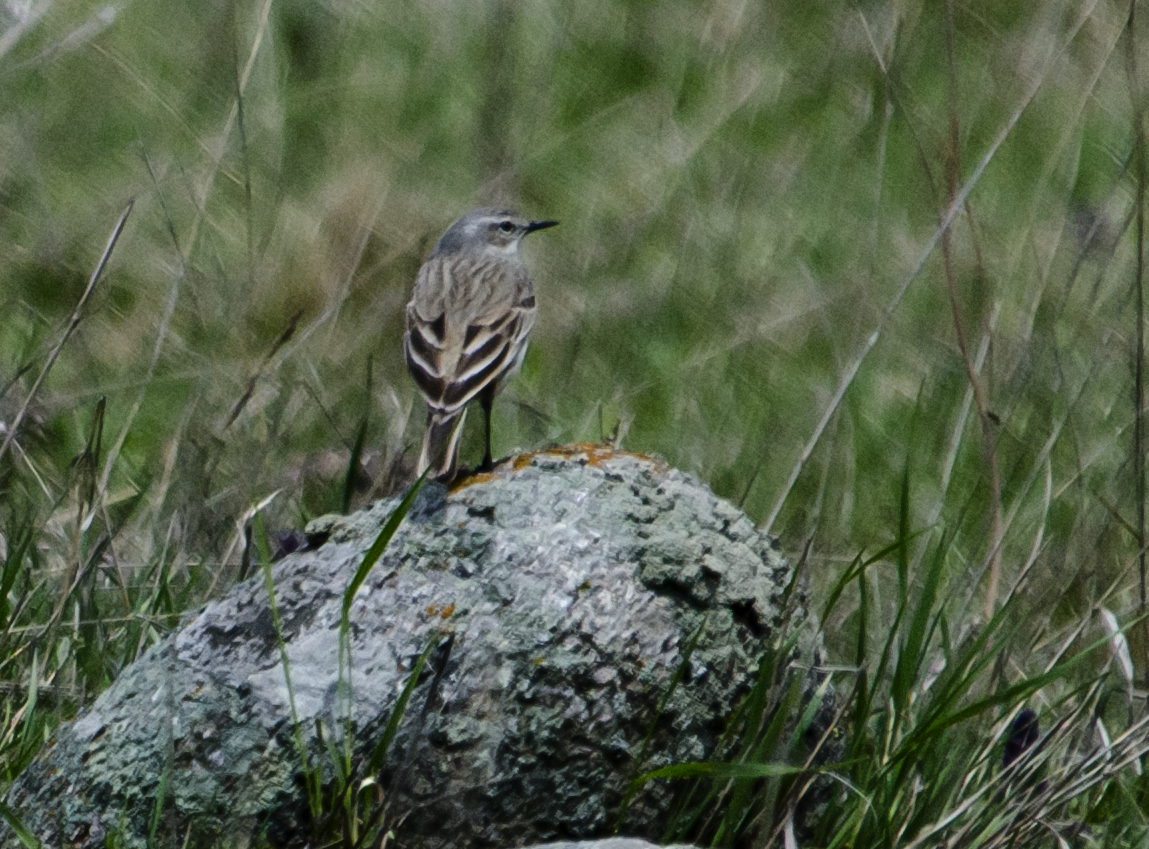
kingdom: Animalia
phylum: Chordata
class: Aves
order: Passeriformes
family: Motacillidae
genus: Anthus
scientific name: Anthus campestris
